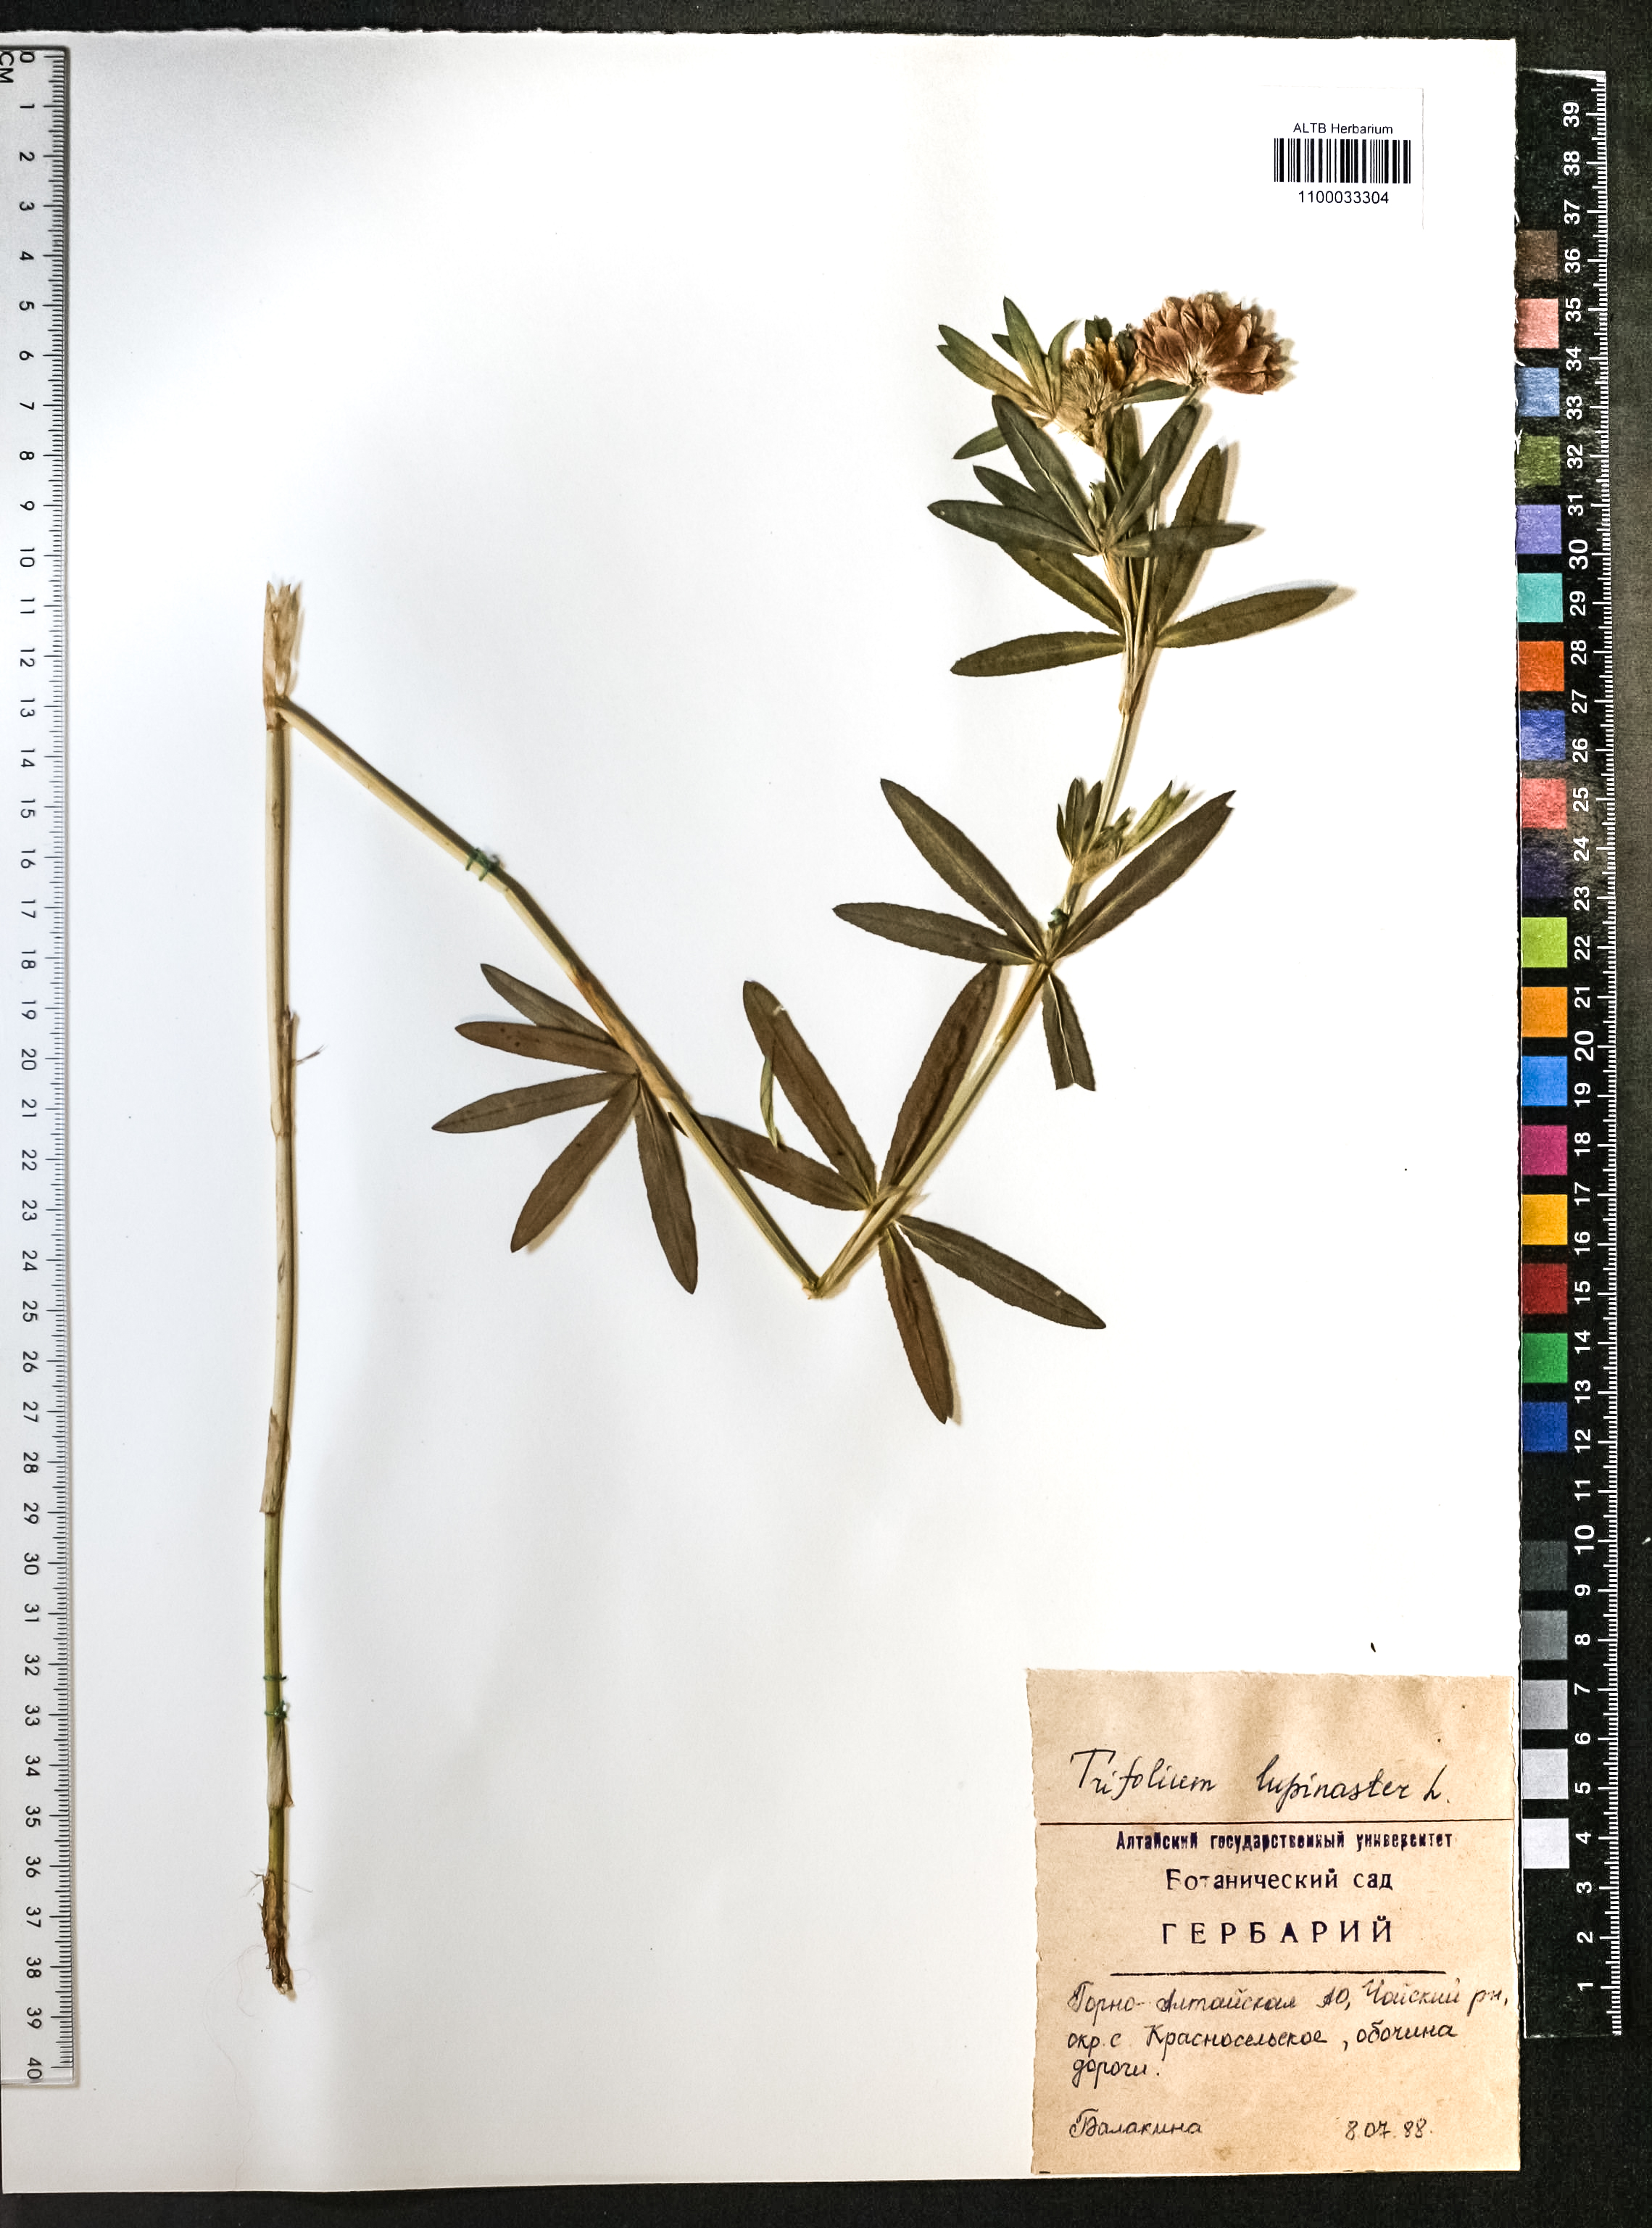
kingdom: Plantae
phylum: Tracheophyta
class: Magnoliopsida
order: Fabales
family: Fabaceae
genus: Trifolium
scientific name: Trifolium lupinaster
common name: Lupine clover
